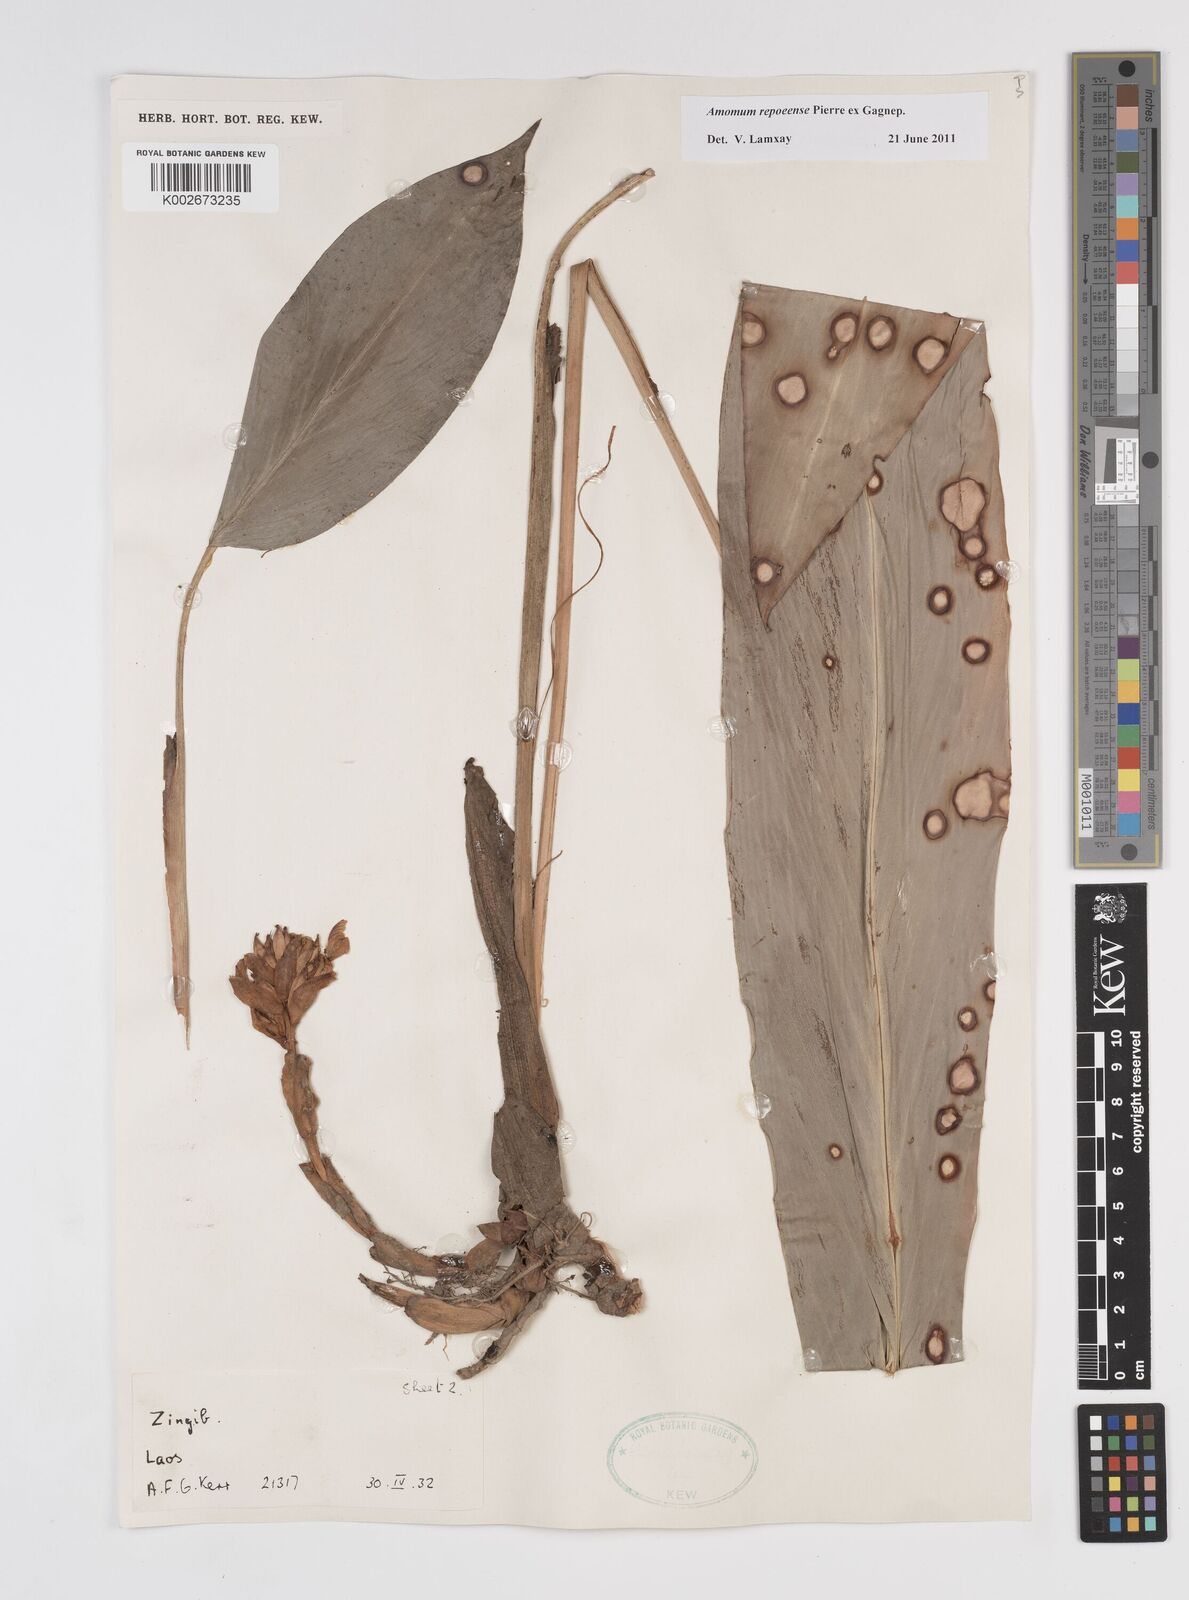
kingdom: Plantae
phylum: Tracheophyta
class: Liliopsida
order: Zingiberales
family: Zingiberaceae
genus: Amomum
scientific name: Amomum repoeense
